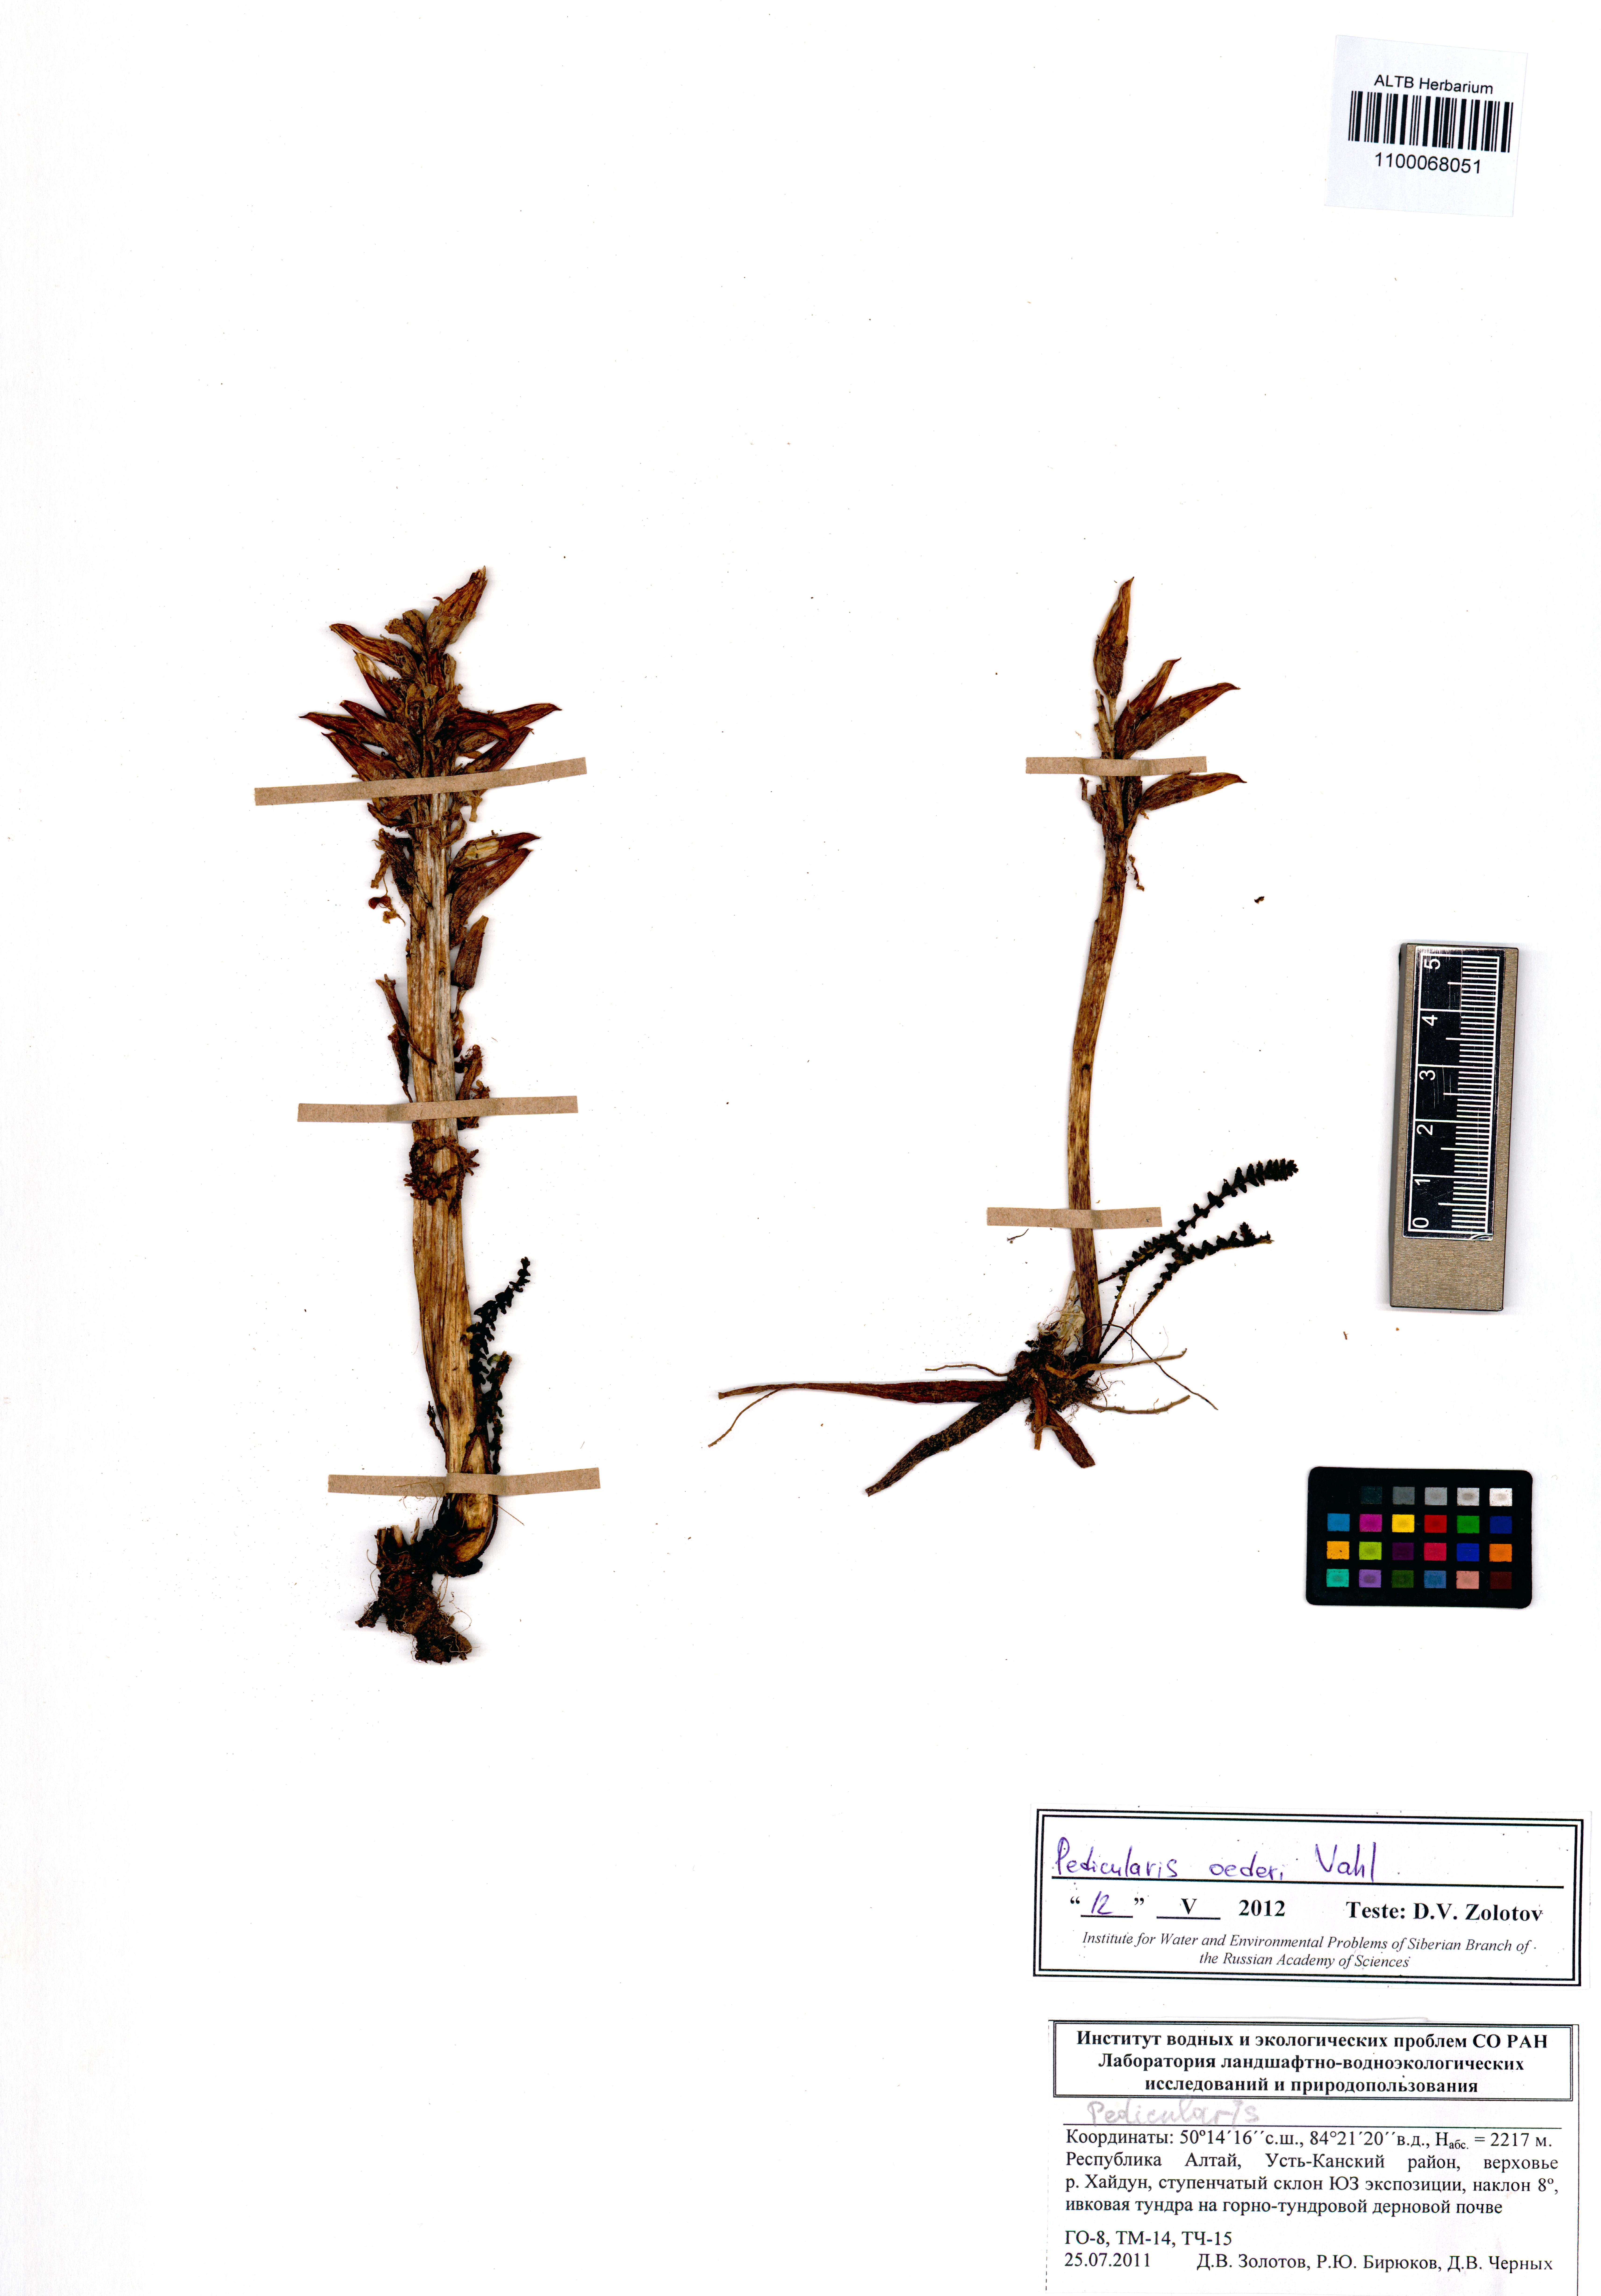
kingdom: Plantae
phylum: Tracheophyta
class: Magnoliopsida
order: Lamiales
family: Orobanchaceae
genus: Pedicularis
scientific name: Pedicularis oederi
